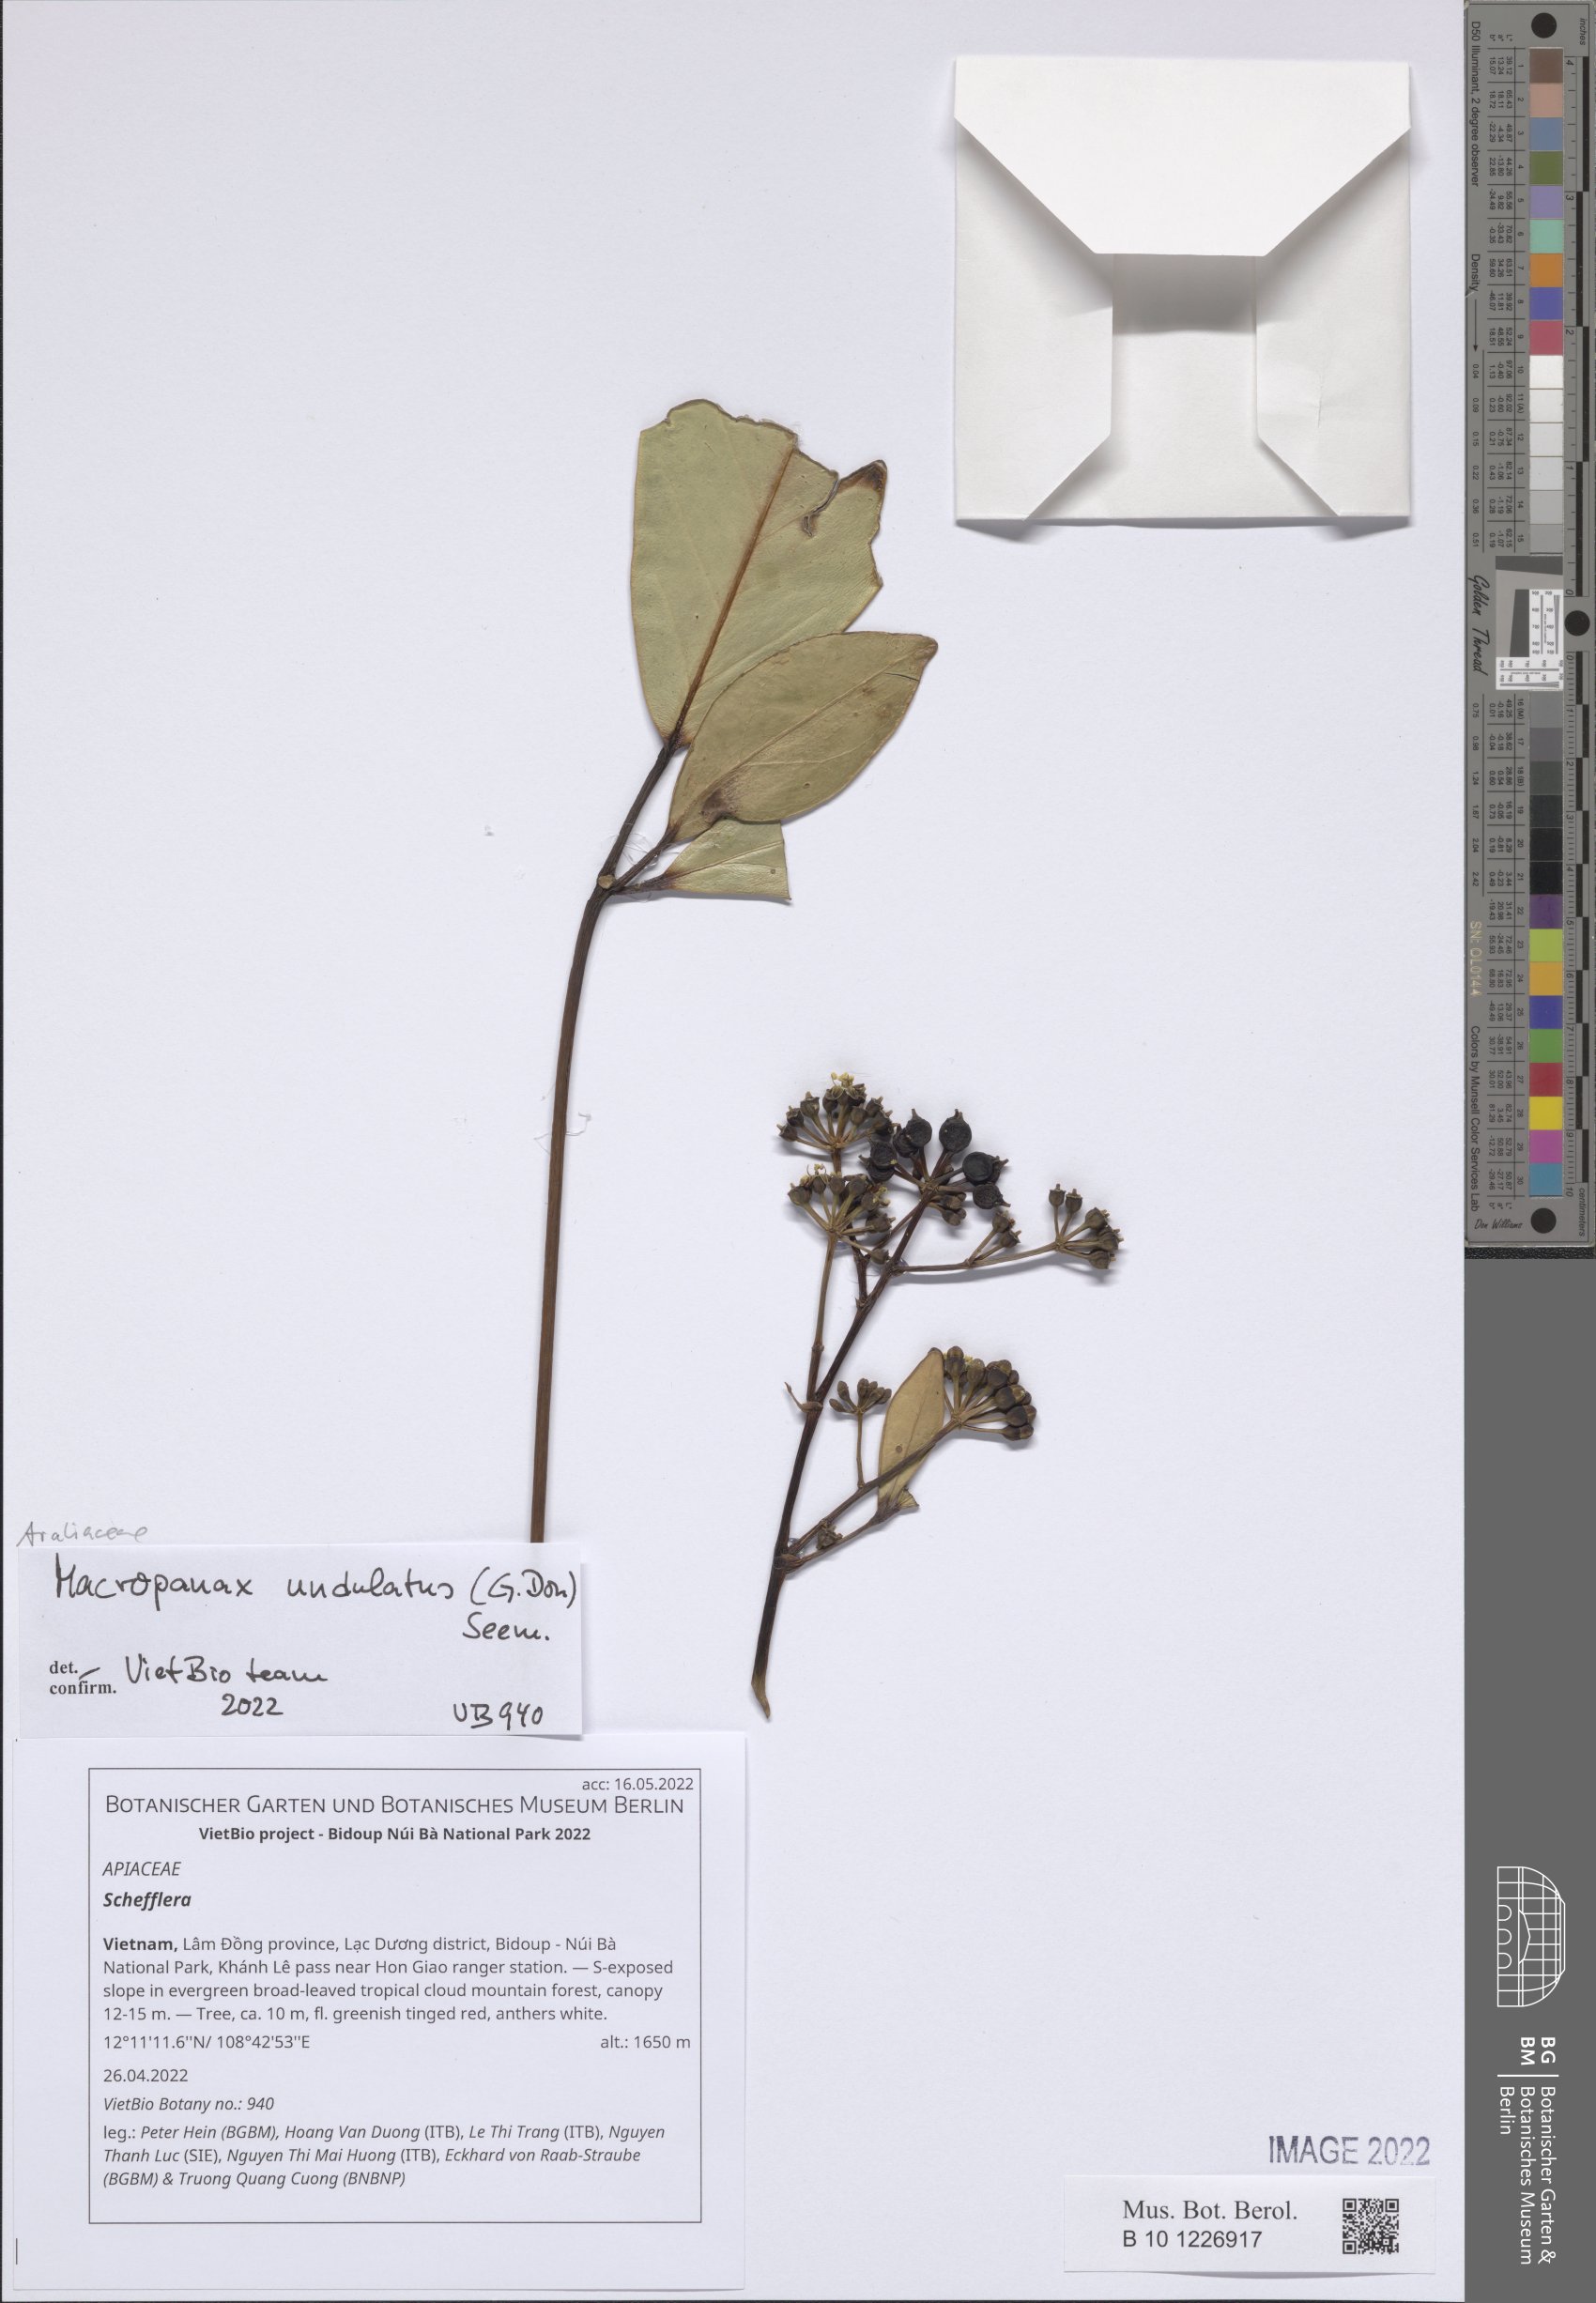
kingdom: Plantae
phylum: Tracheophyta
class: Magnoliopsida
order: Apiales
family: Araliaceae
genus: Schefflera
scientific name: Schefflera
